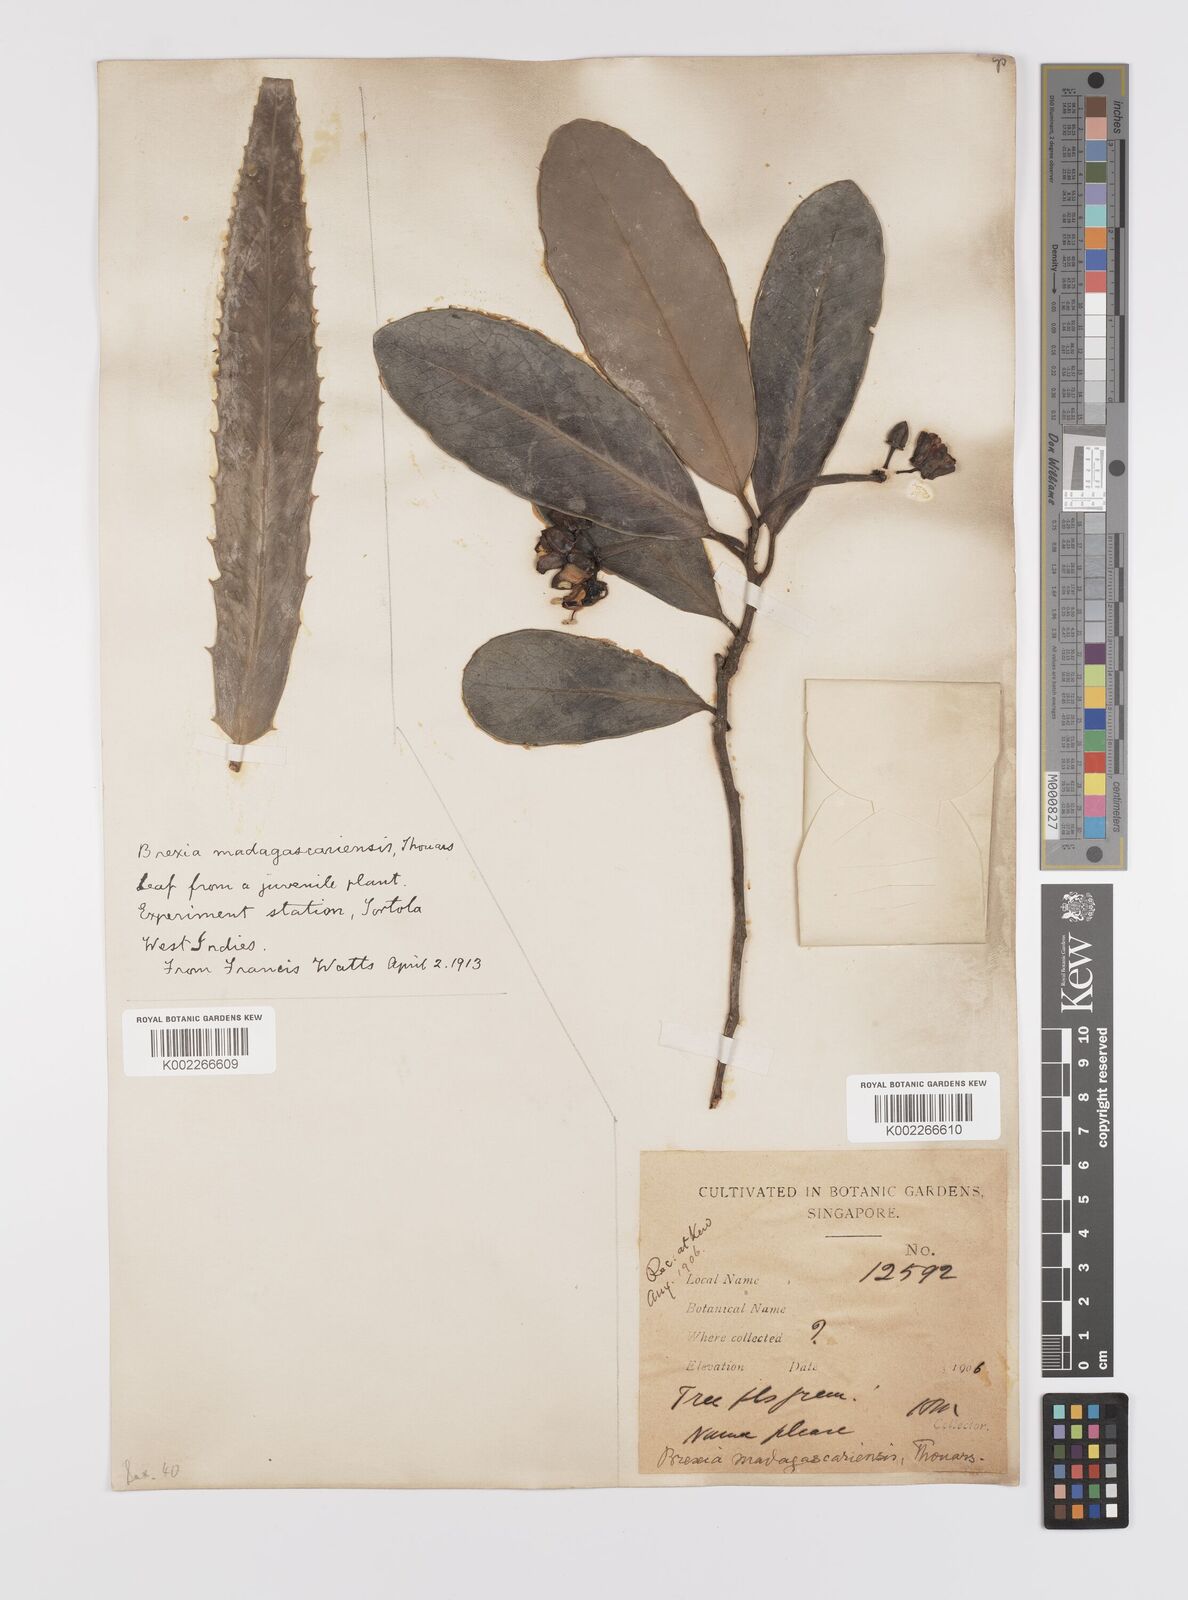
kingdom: Plantae
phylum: Tracheophyta
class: Magnoliopsida
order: Celastrales
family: Celastraceae
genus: Brexia
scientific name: Brexia madagascariensis
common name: Brexia
